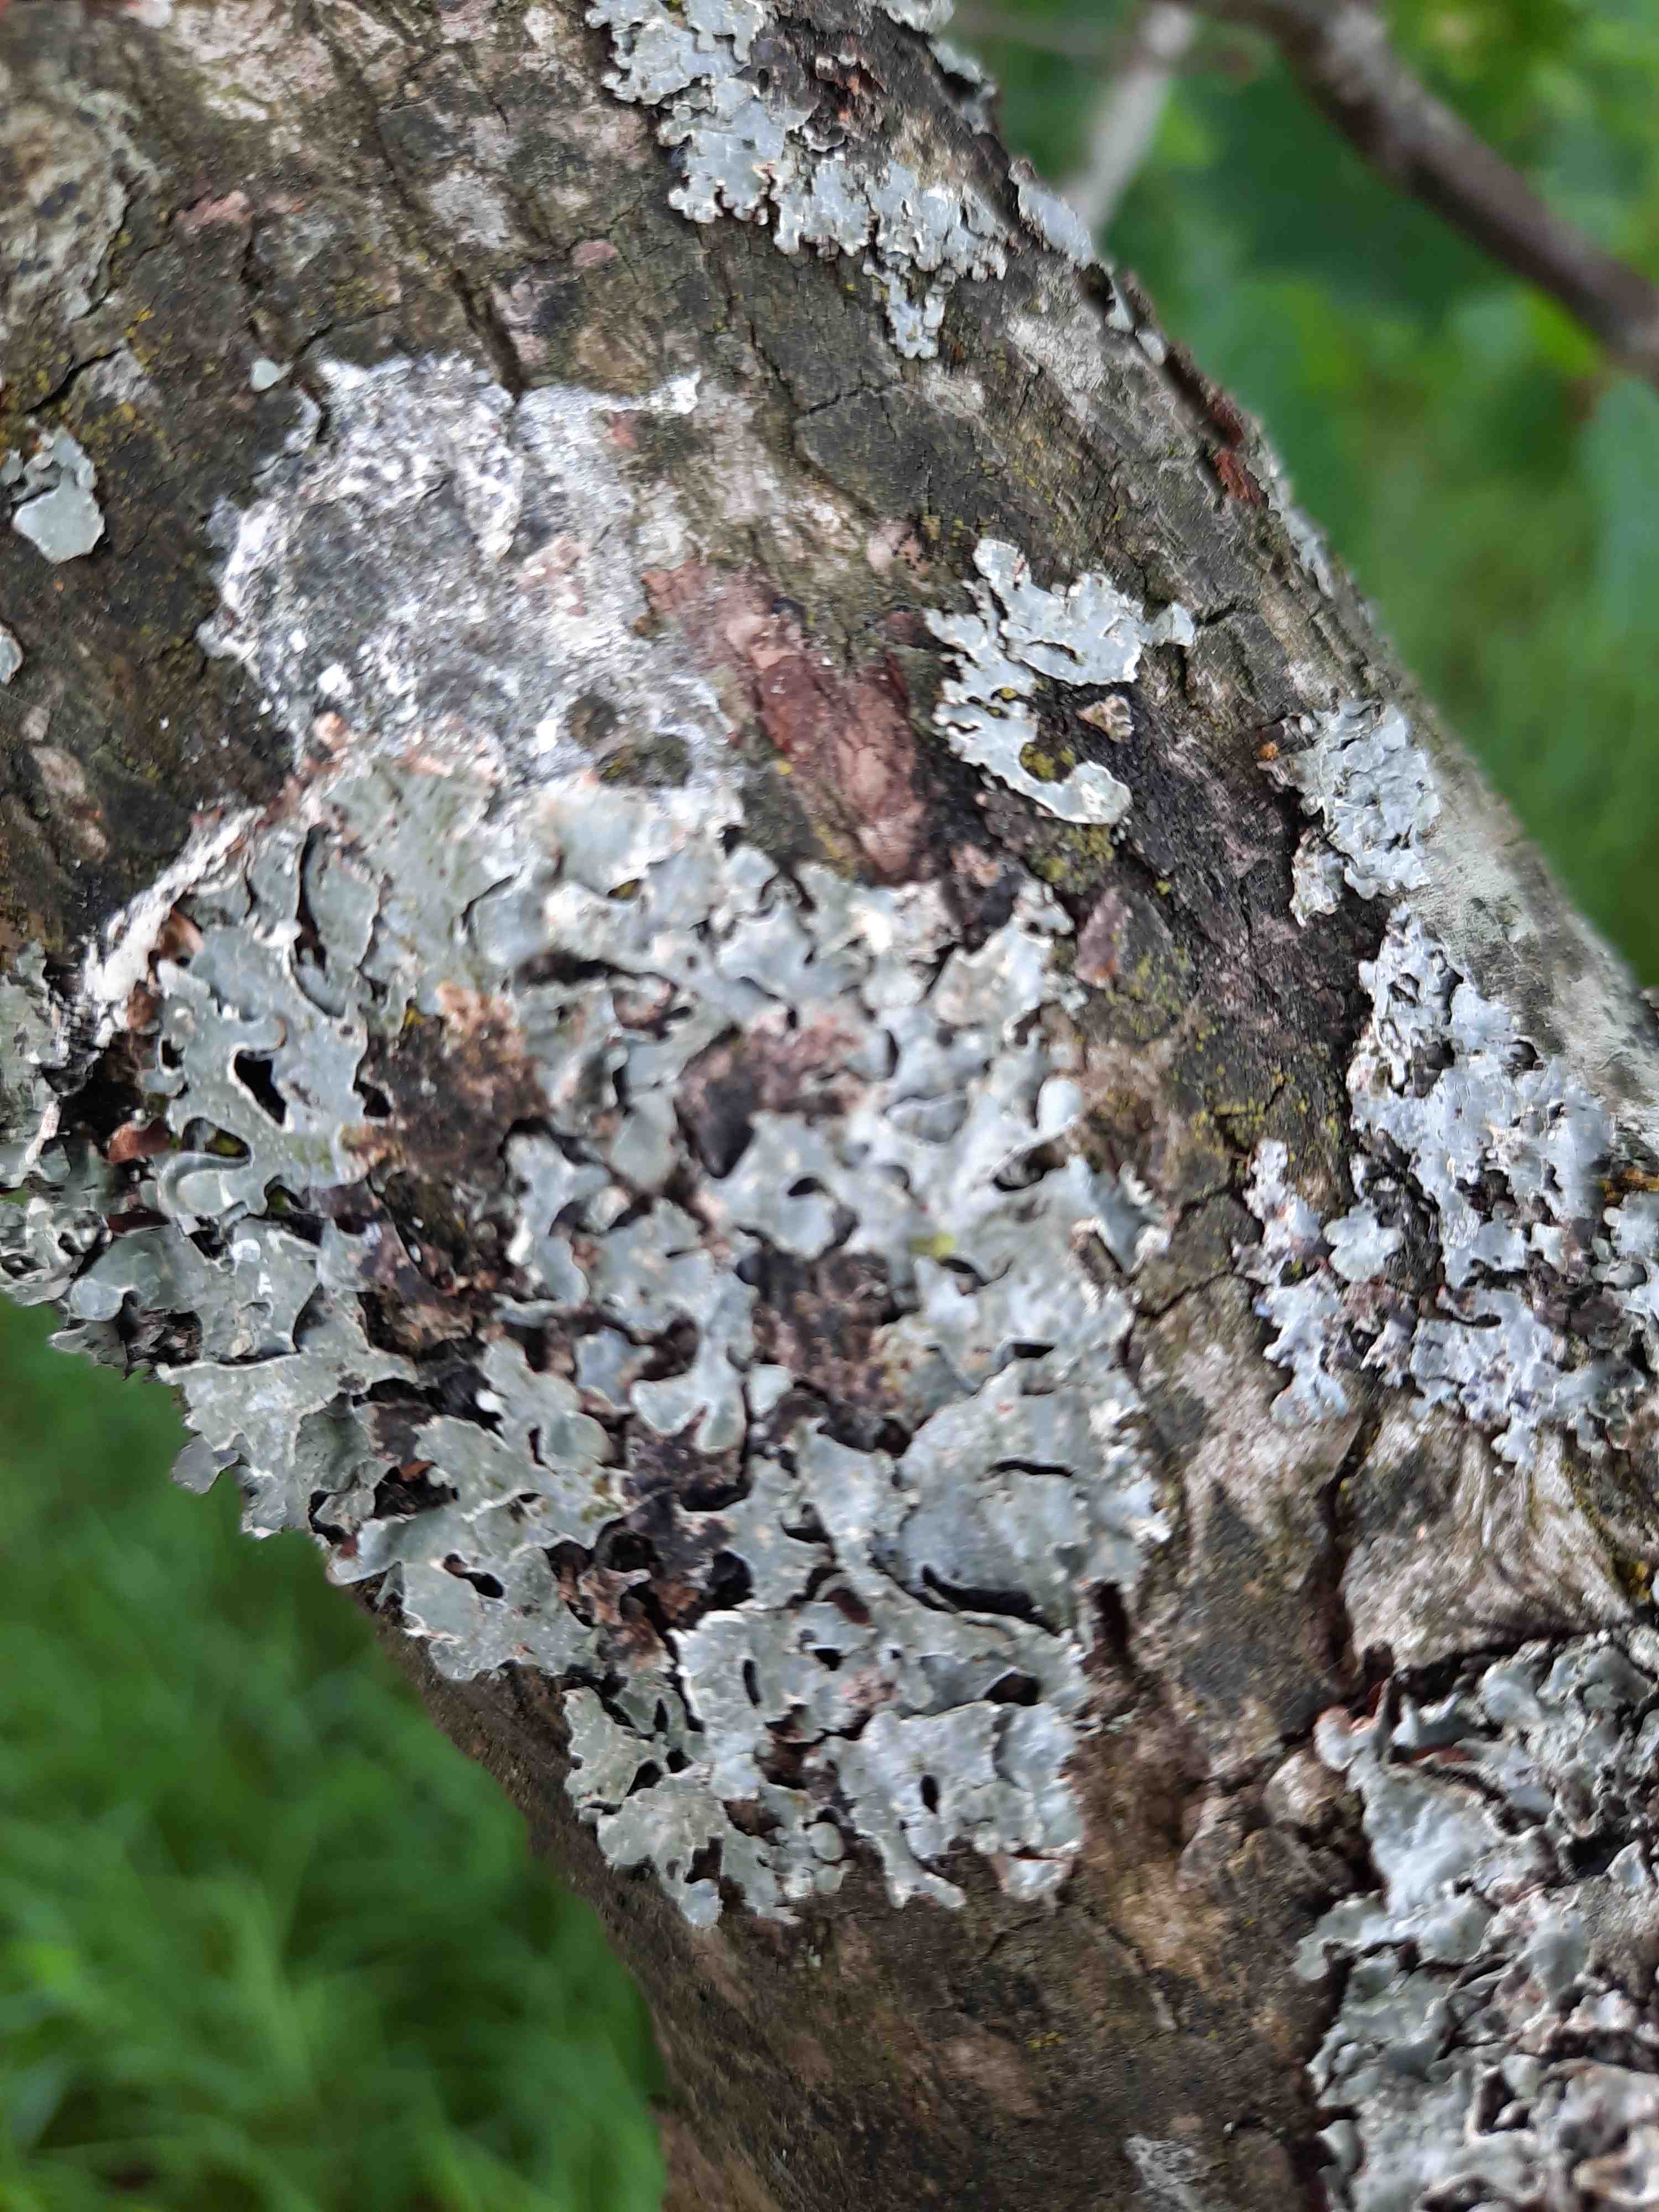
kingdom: Fungi
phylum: Ascomycota
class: Lecanoromycetes
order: Lecanorales
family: Parmeliaceae
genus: Parmelia
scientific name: Parmelia sulcata
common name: rynket skållav
